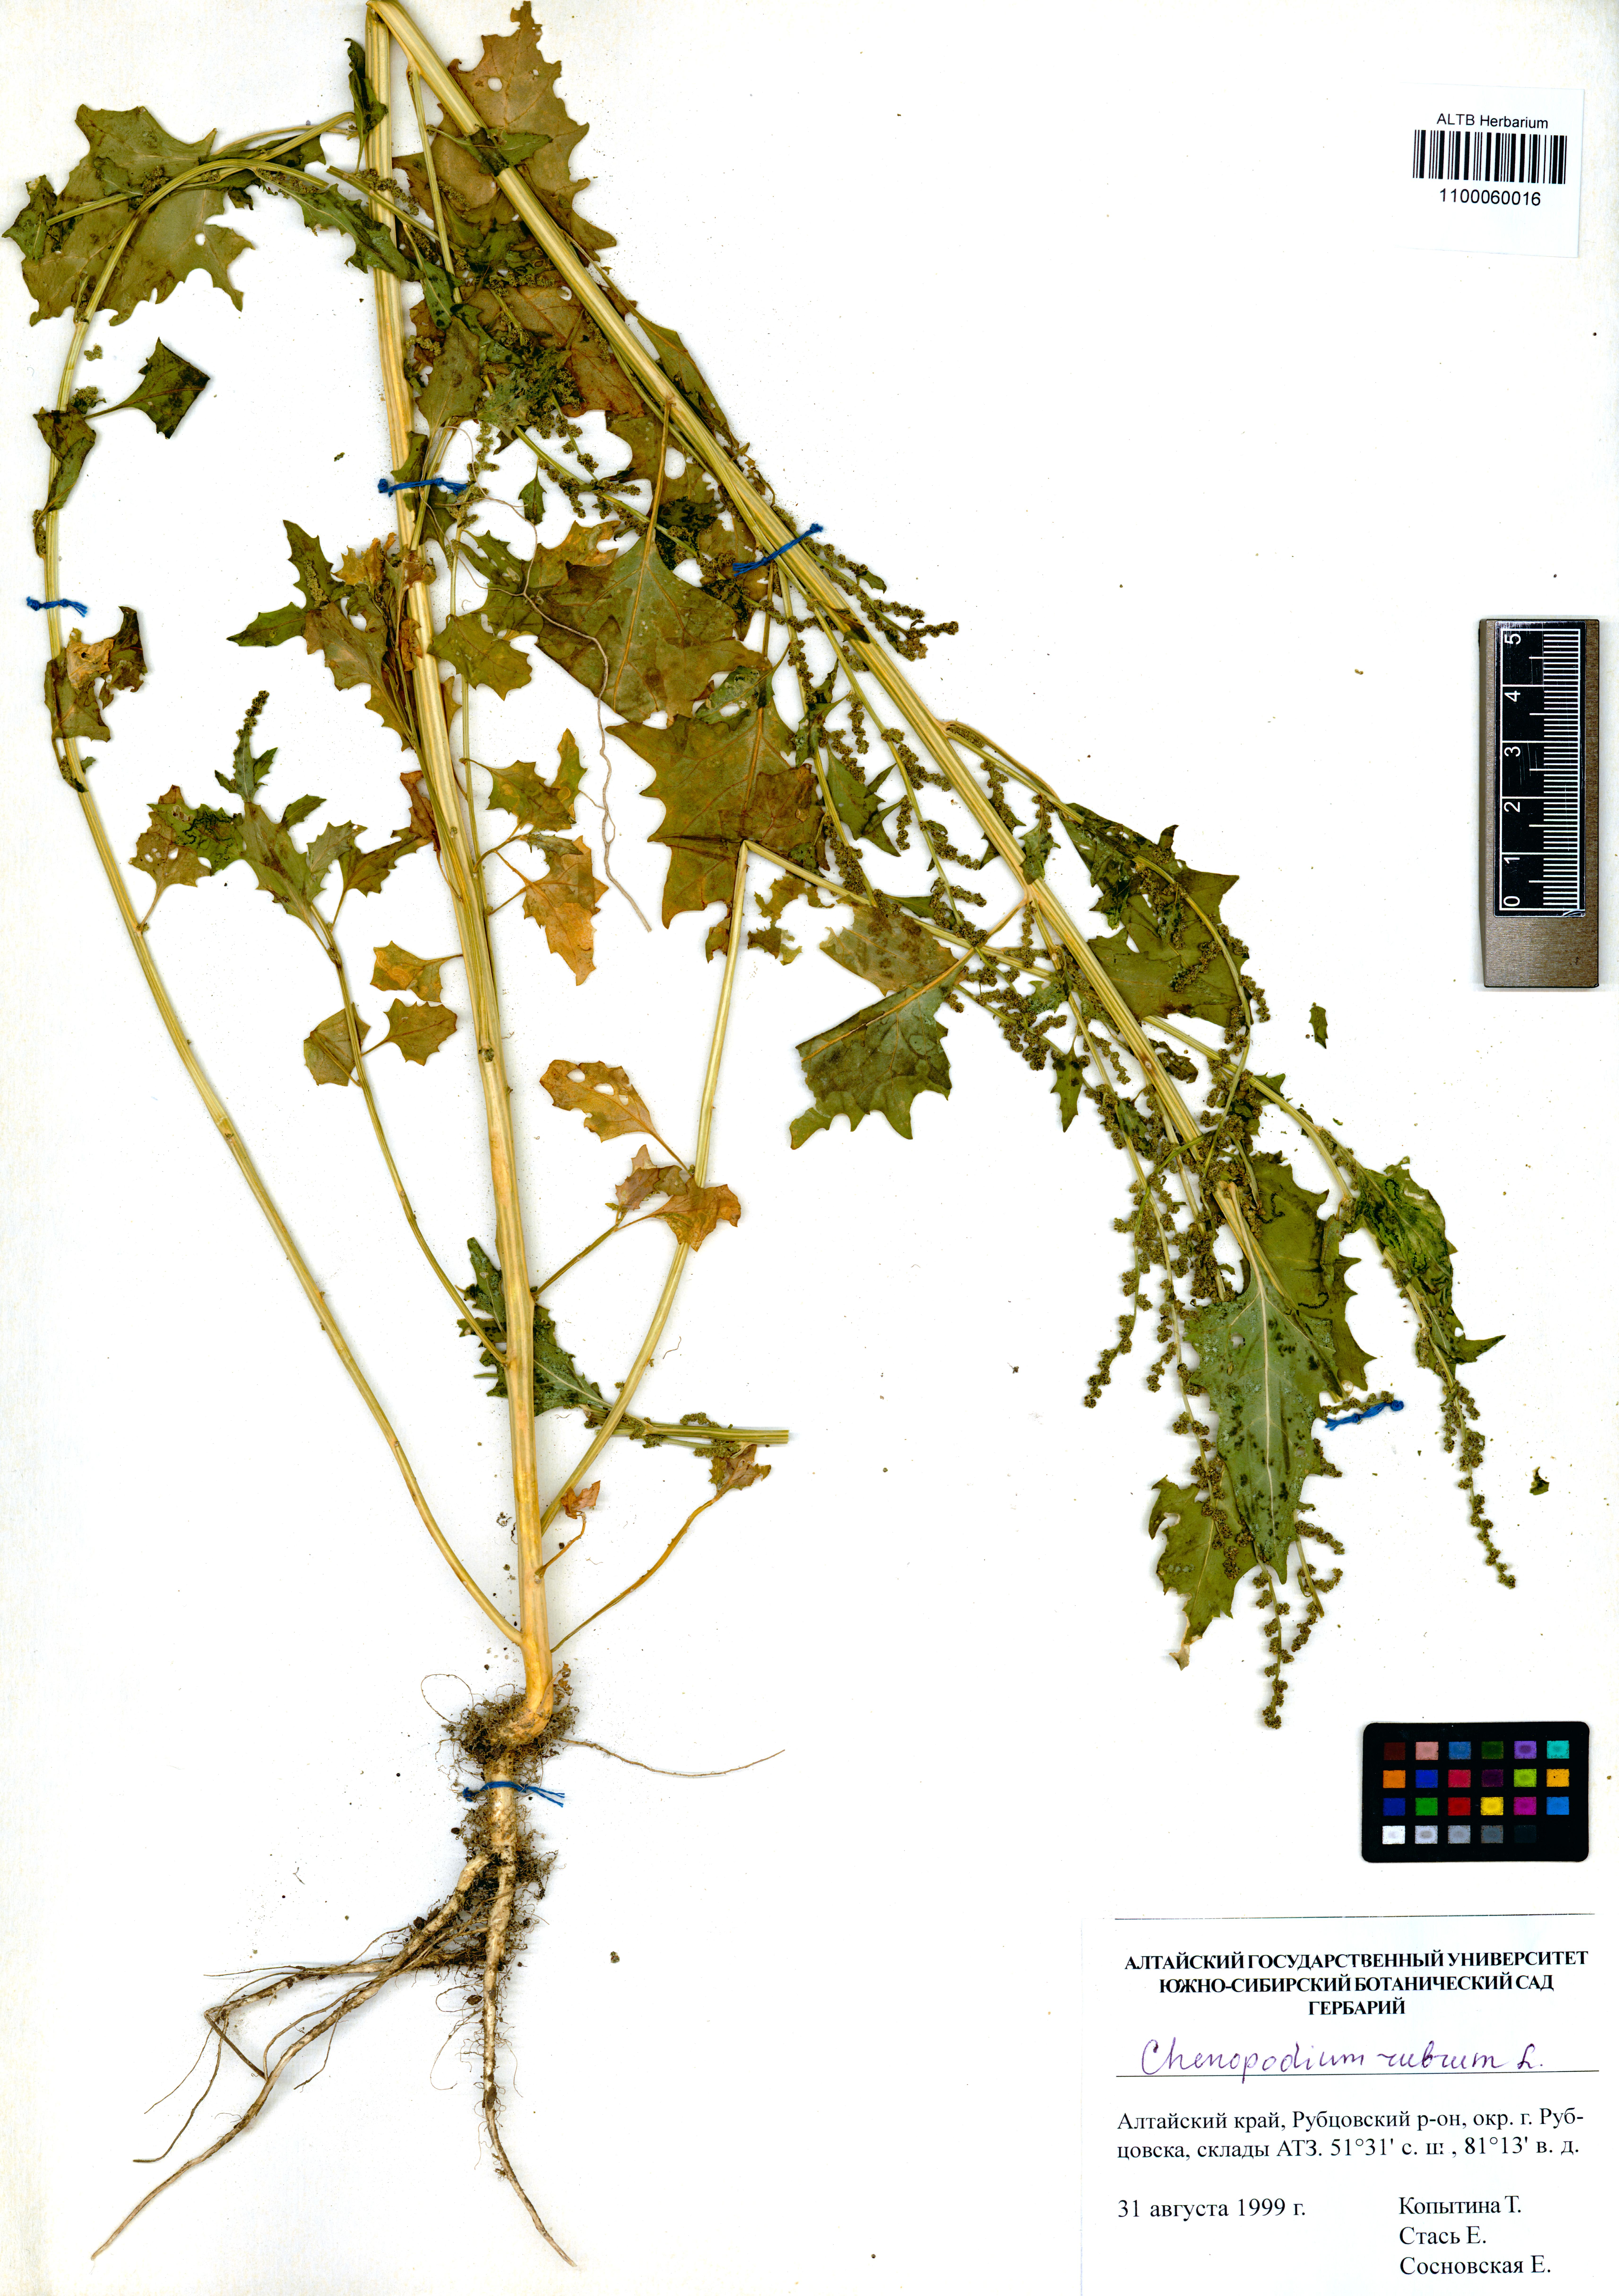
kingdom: Plantae
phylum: Tracheophyta
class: Magnoliopsida
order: Caryophyllales
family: Amaranthaceae
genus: Oxybasis
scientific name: Oxybasis rubra
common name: Red goosefoot
